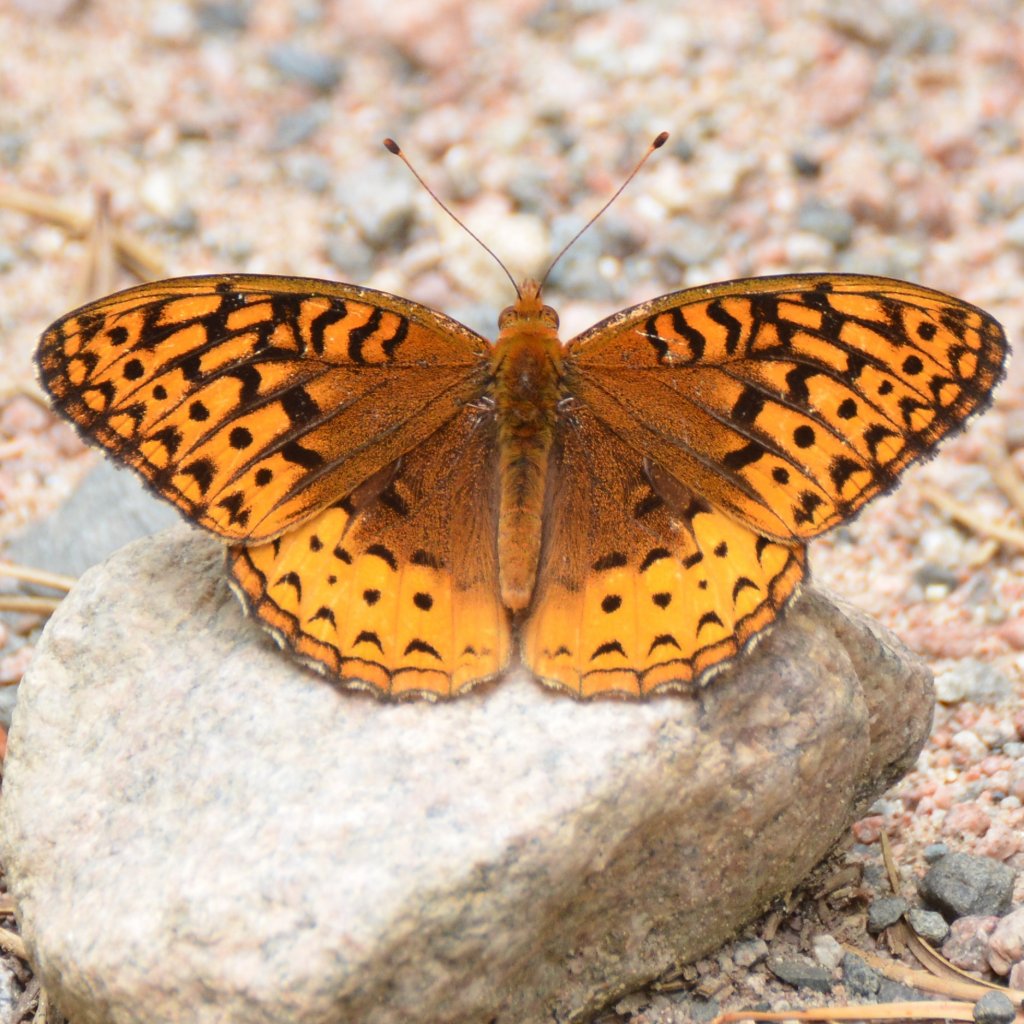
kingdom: Animalia
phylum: Arthropoda
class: Insecta
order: Lepidoptera
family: Nymphalidae
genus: Speyeria
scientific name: Speyeria cybele
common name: Great Spangled Fritillary
